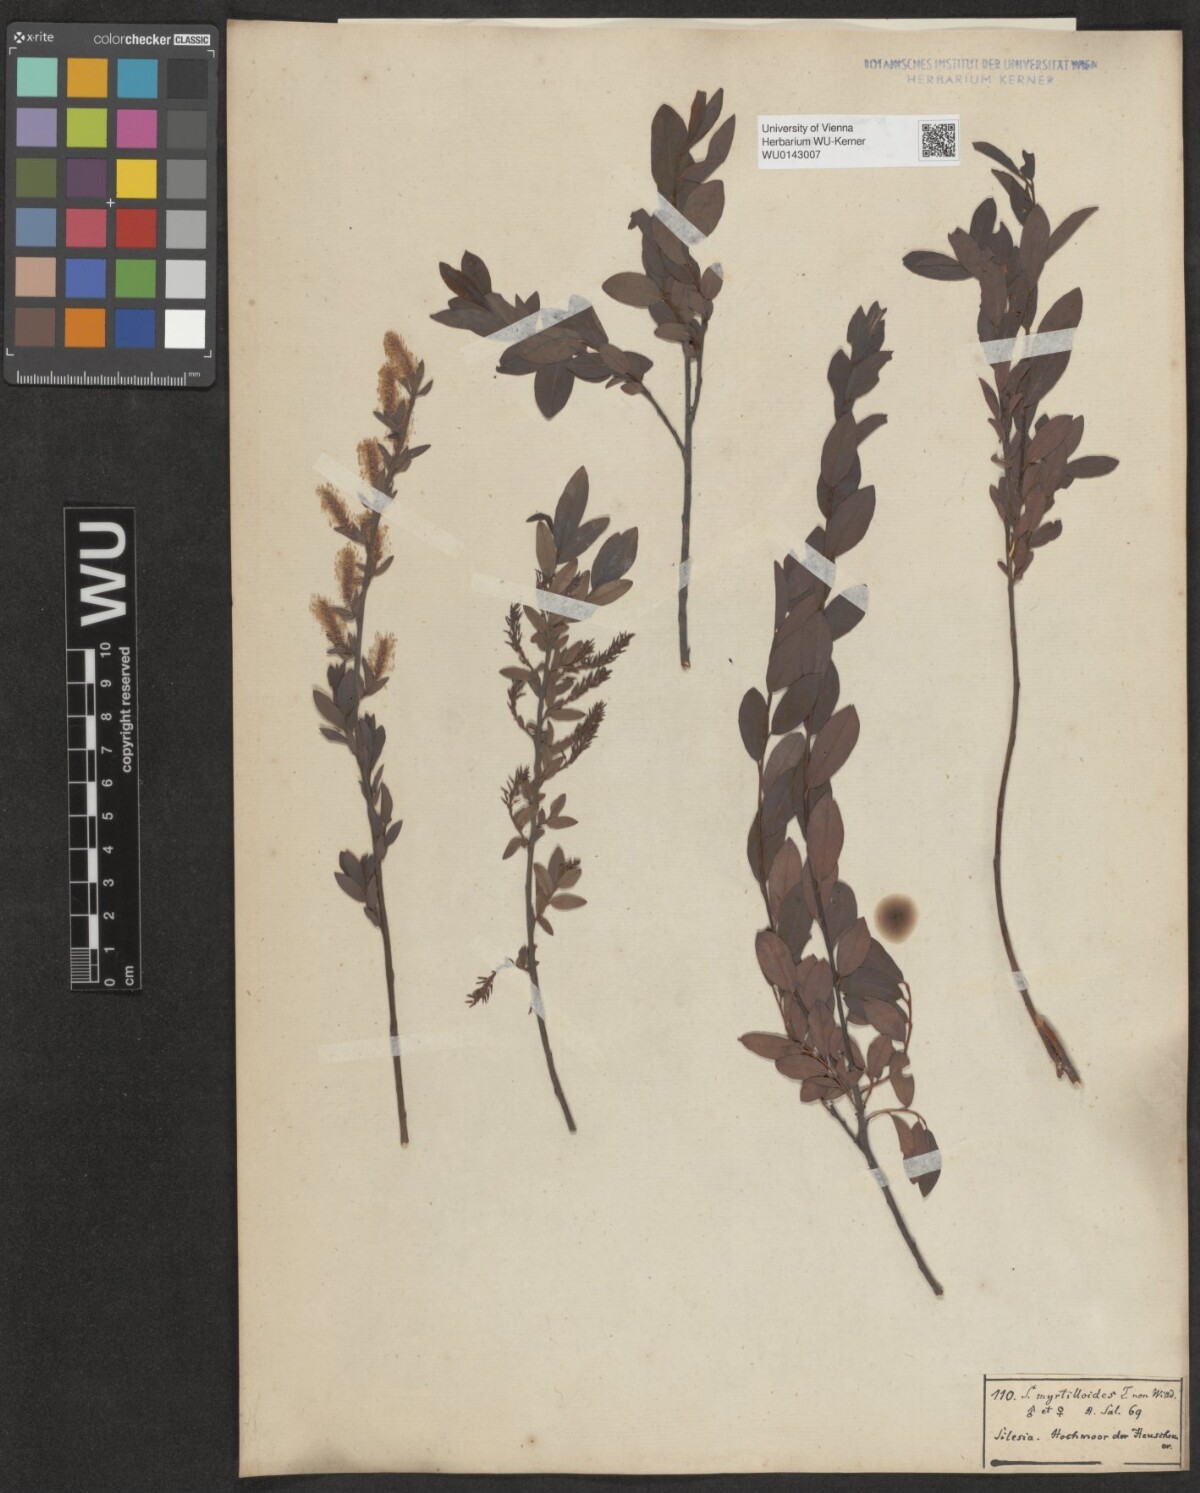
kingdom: Plantae
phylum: Tracheophyta
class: Magnoliopsida
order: Malpighiales
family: Salicaceae
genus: Salix
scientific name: Salix myrtilloides
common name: Myrtle-leaved willow
